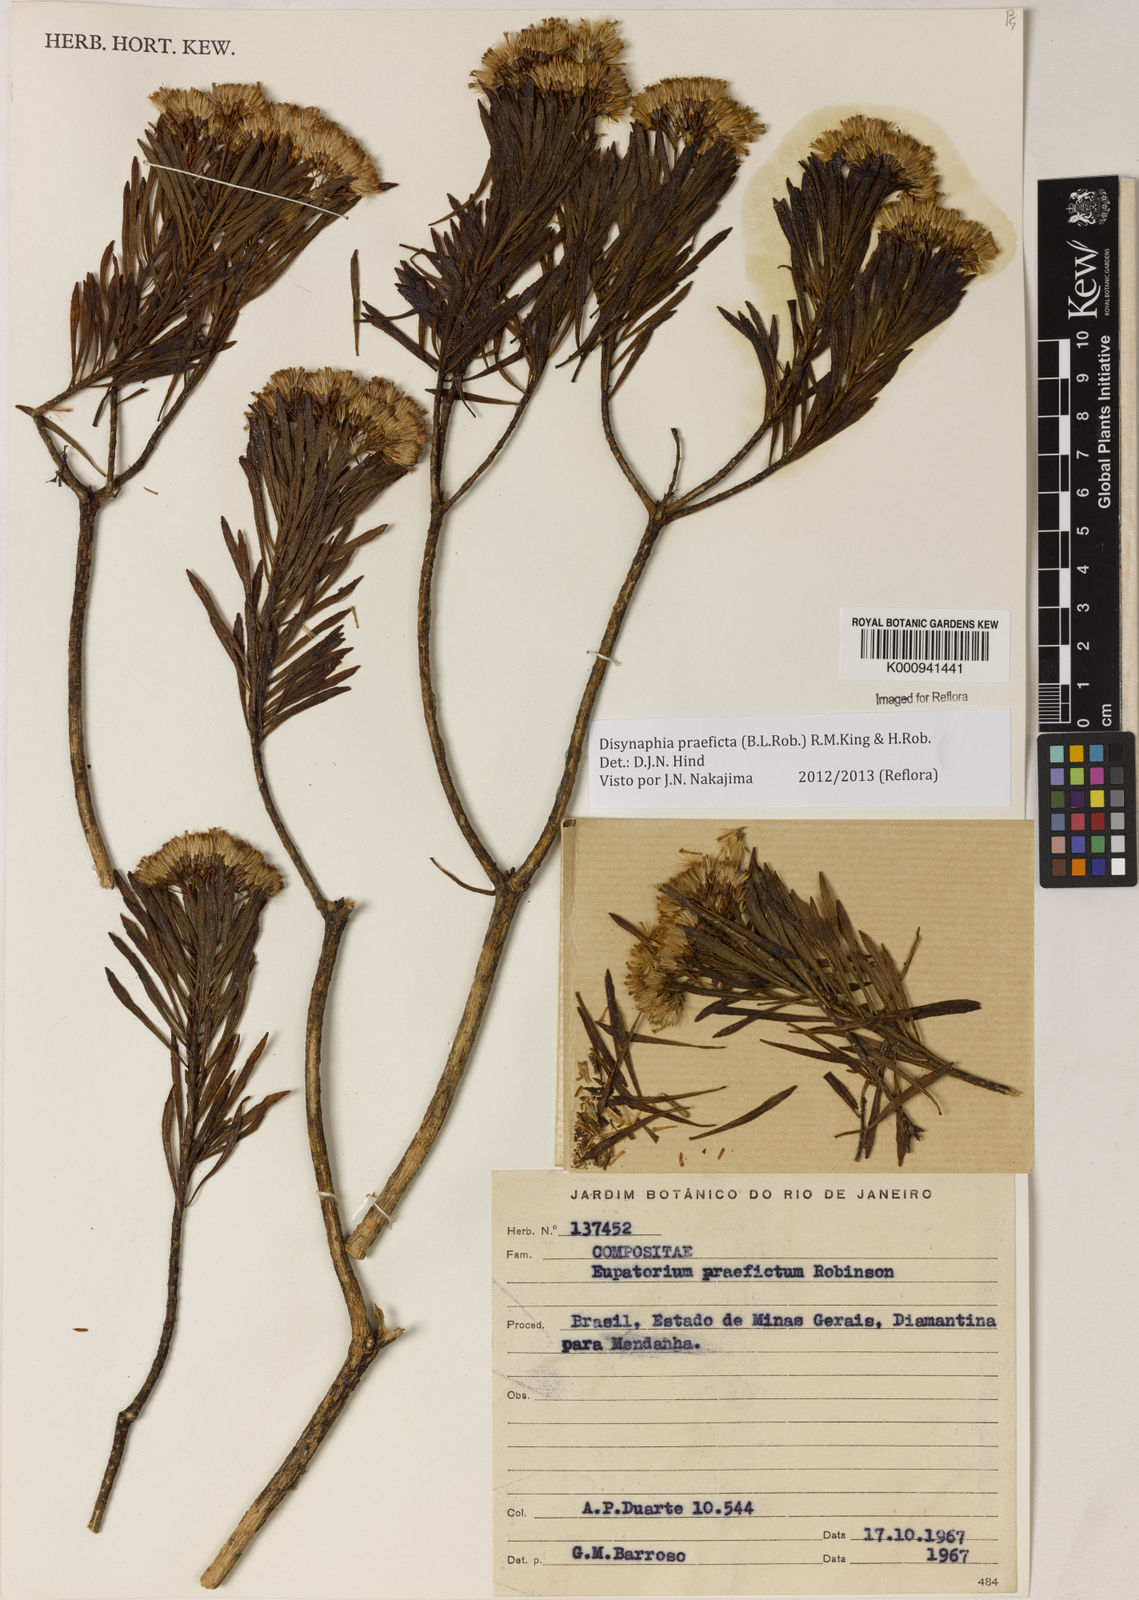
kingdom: Plantae
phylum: Tracheophyta
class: Magnoliopsida
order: Asterales
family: Asteraceae
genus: Disynaphia
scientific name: Disynaphia praeficta
